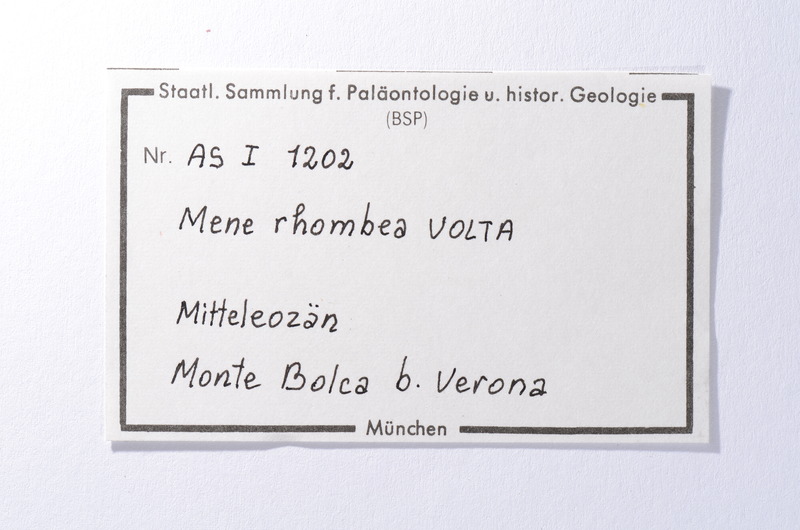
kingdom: Animalia
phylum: Chordata
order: Perciformes
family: Menidae
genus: Mene
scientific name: Mene rhombea
